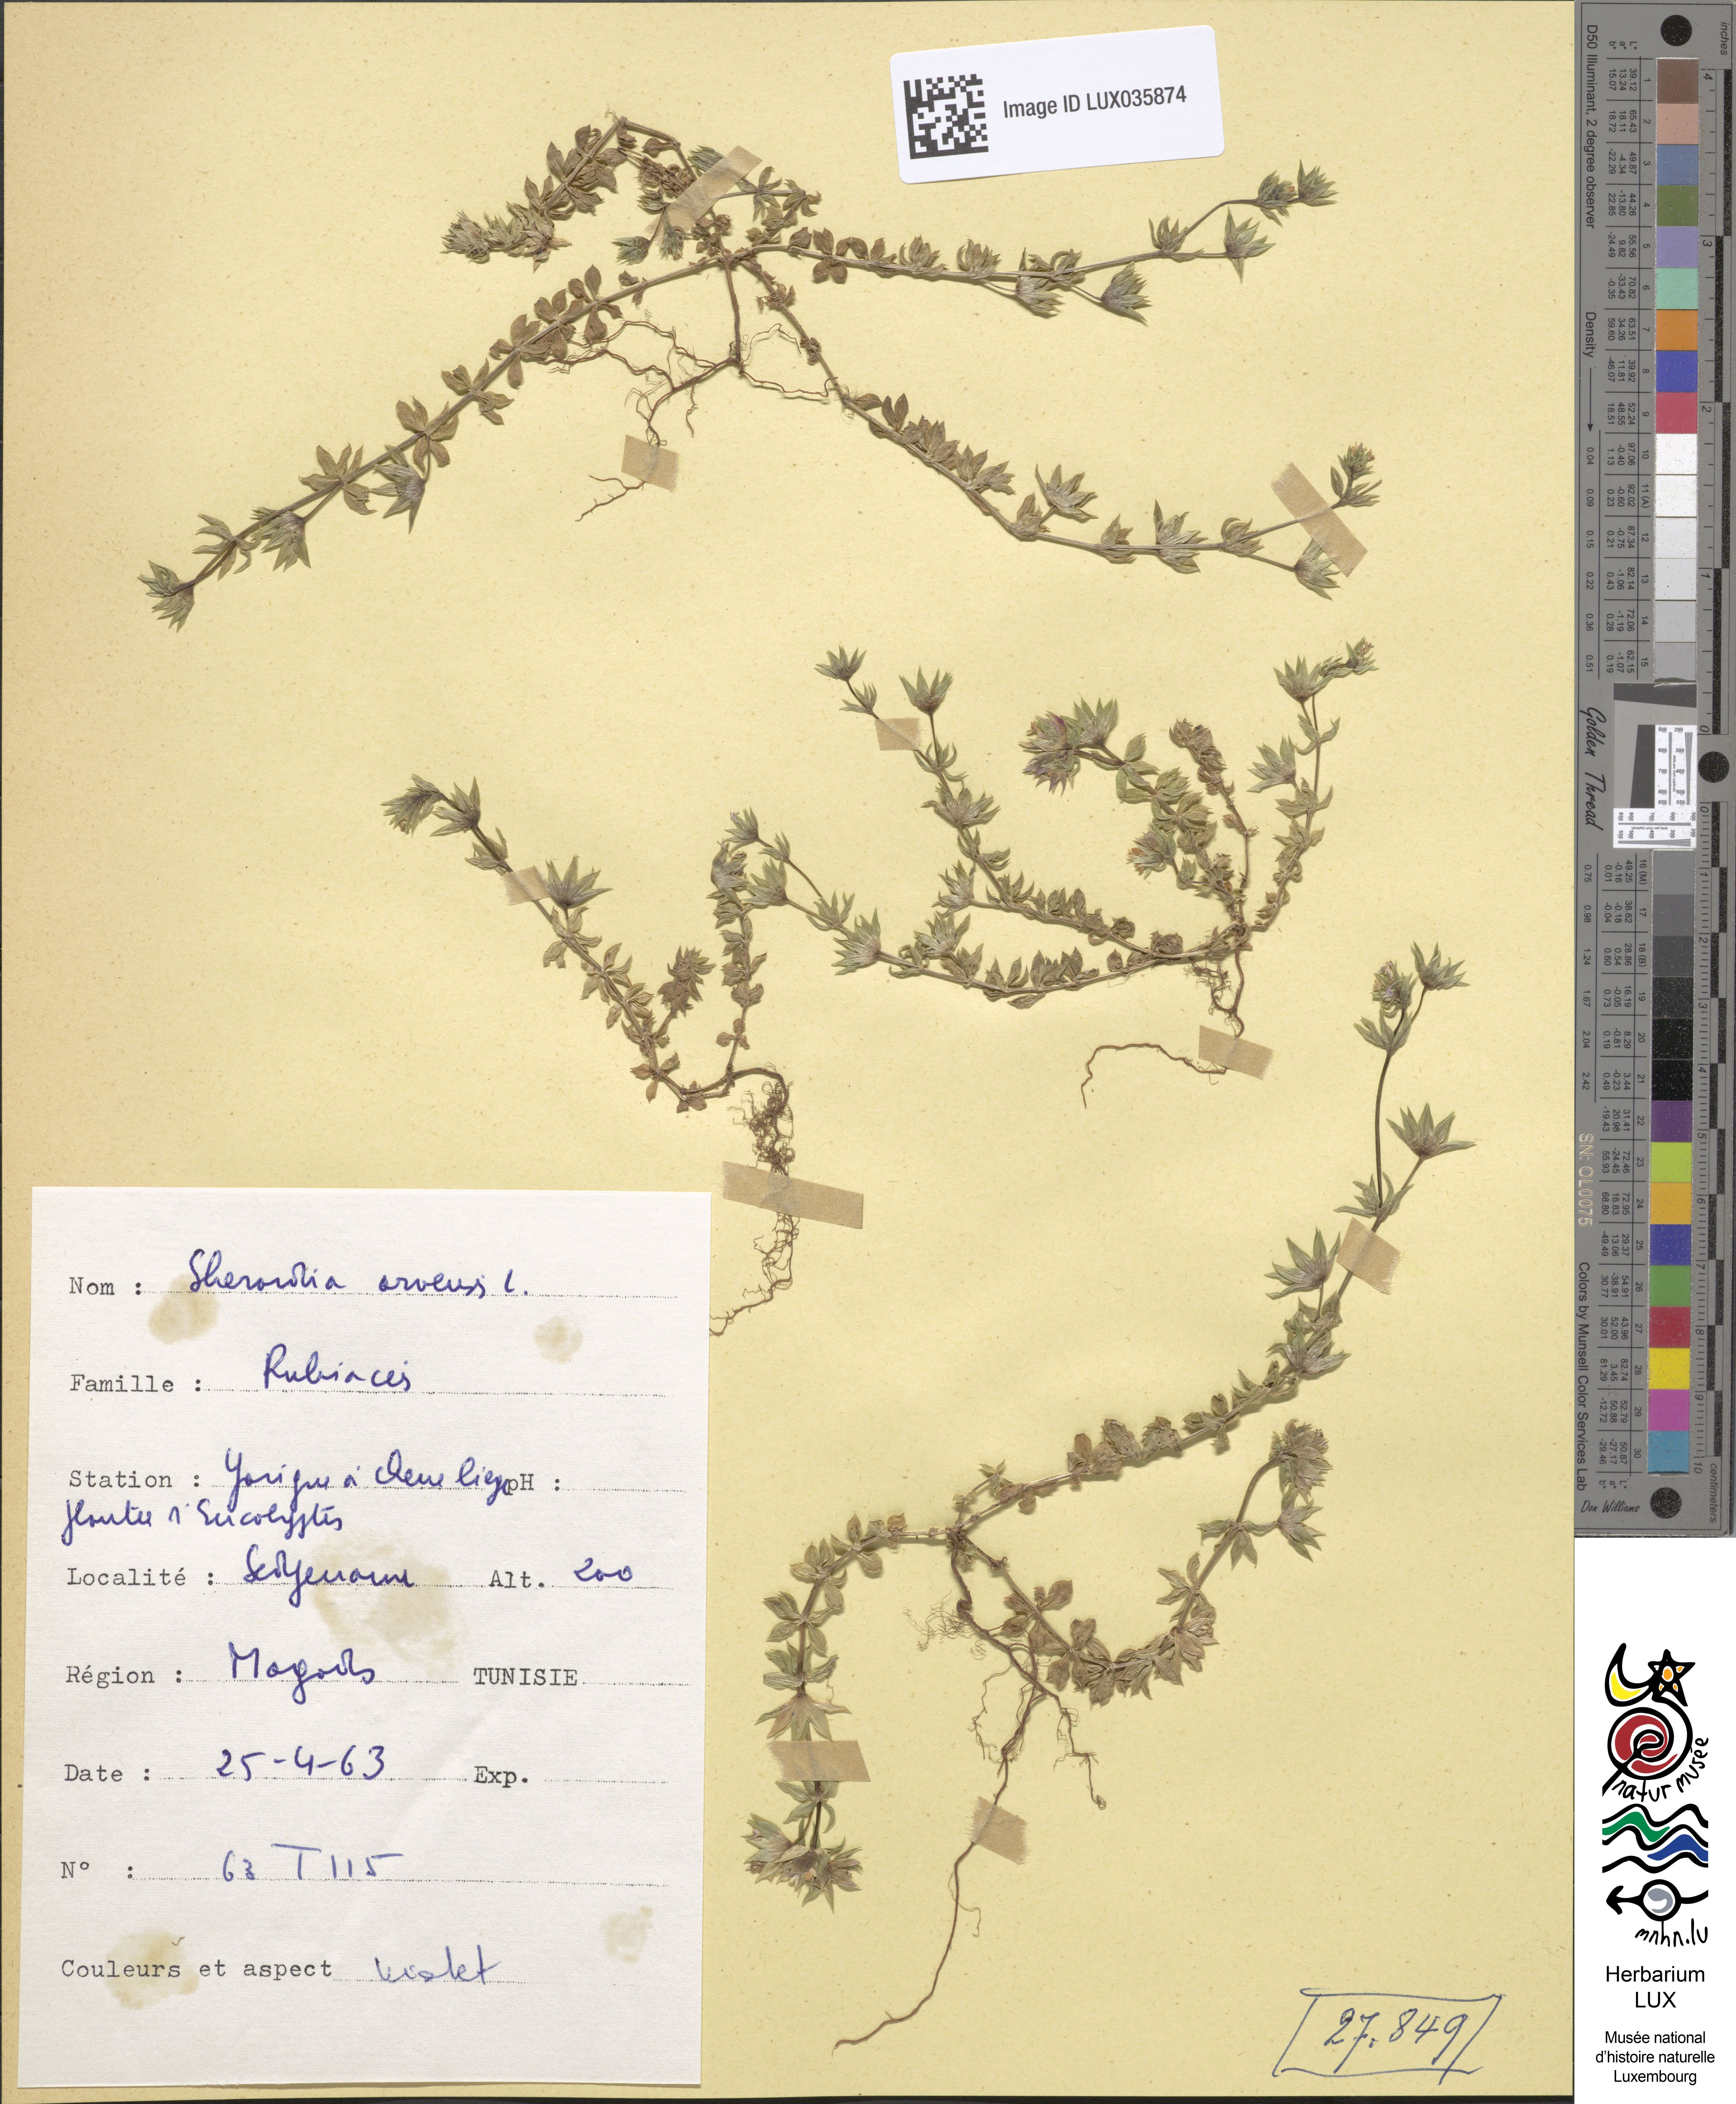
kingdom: Plantae
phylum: Tracheophyta
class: Magnoliopsida
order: Gentianales
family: Rubiaceae
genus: Sherardia
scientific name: Sherardia arvensis
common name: Field madder
